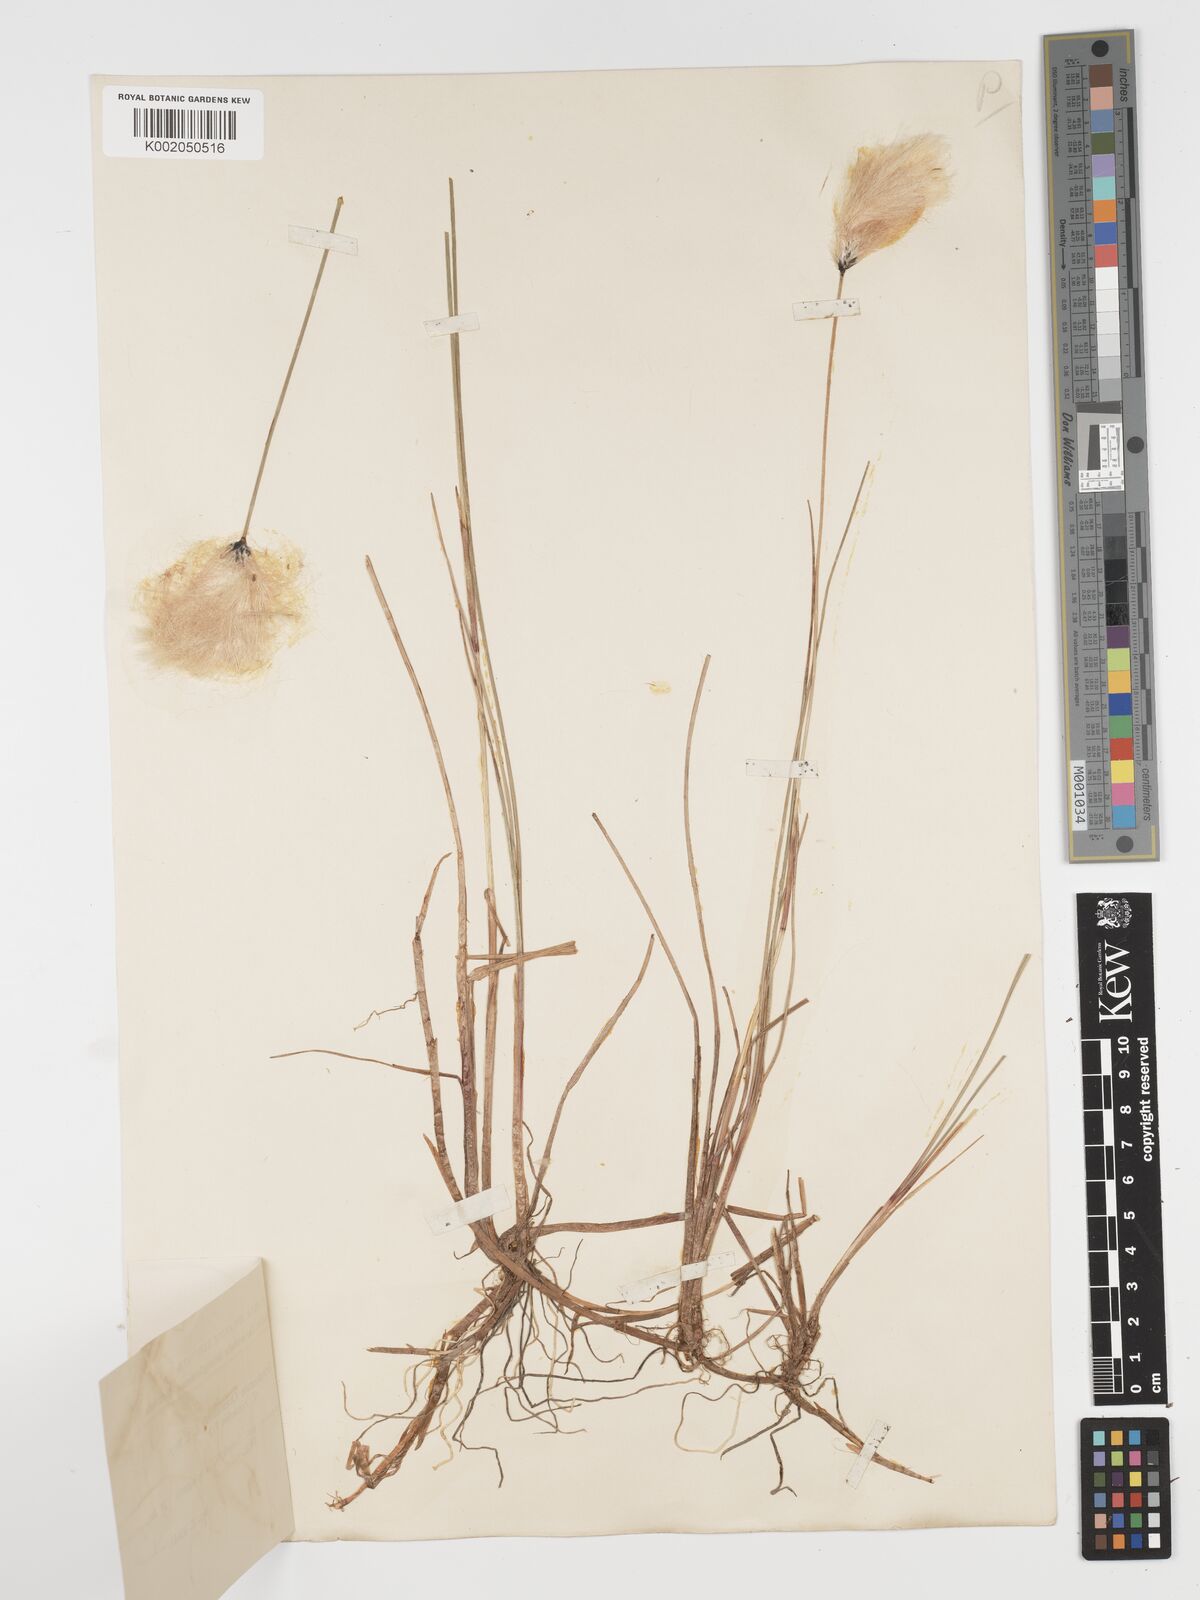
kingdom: Plantae
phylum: Tracheophyta
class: Liliopsida
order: Poales
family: Cyperaceae
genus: Eriophorum
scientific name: Eriophorum chamissonis
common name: Chamisso's cottongrass
